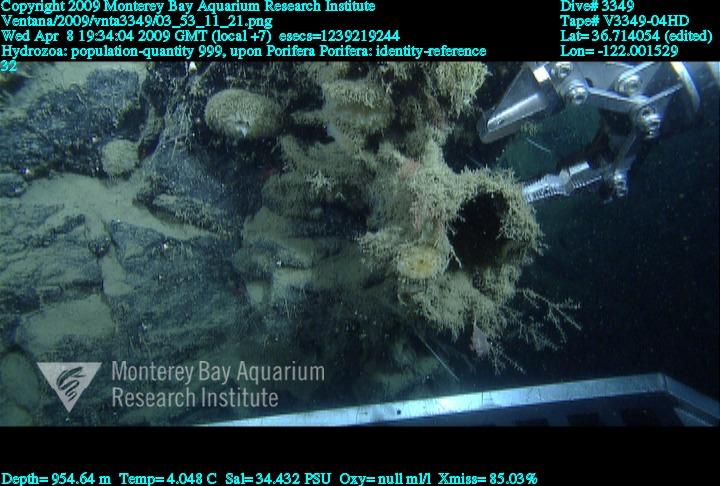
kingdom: Animalia
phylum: Porifera
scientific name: Porifera
